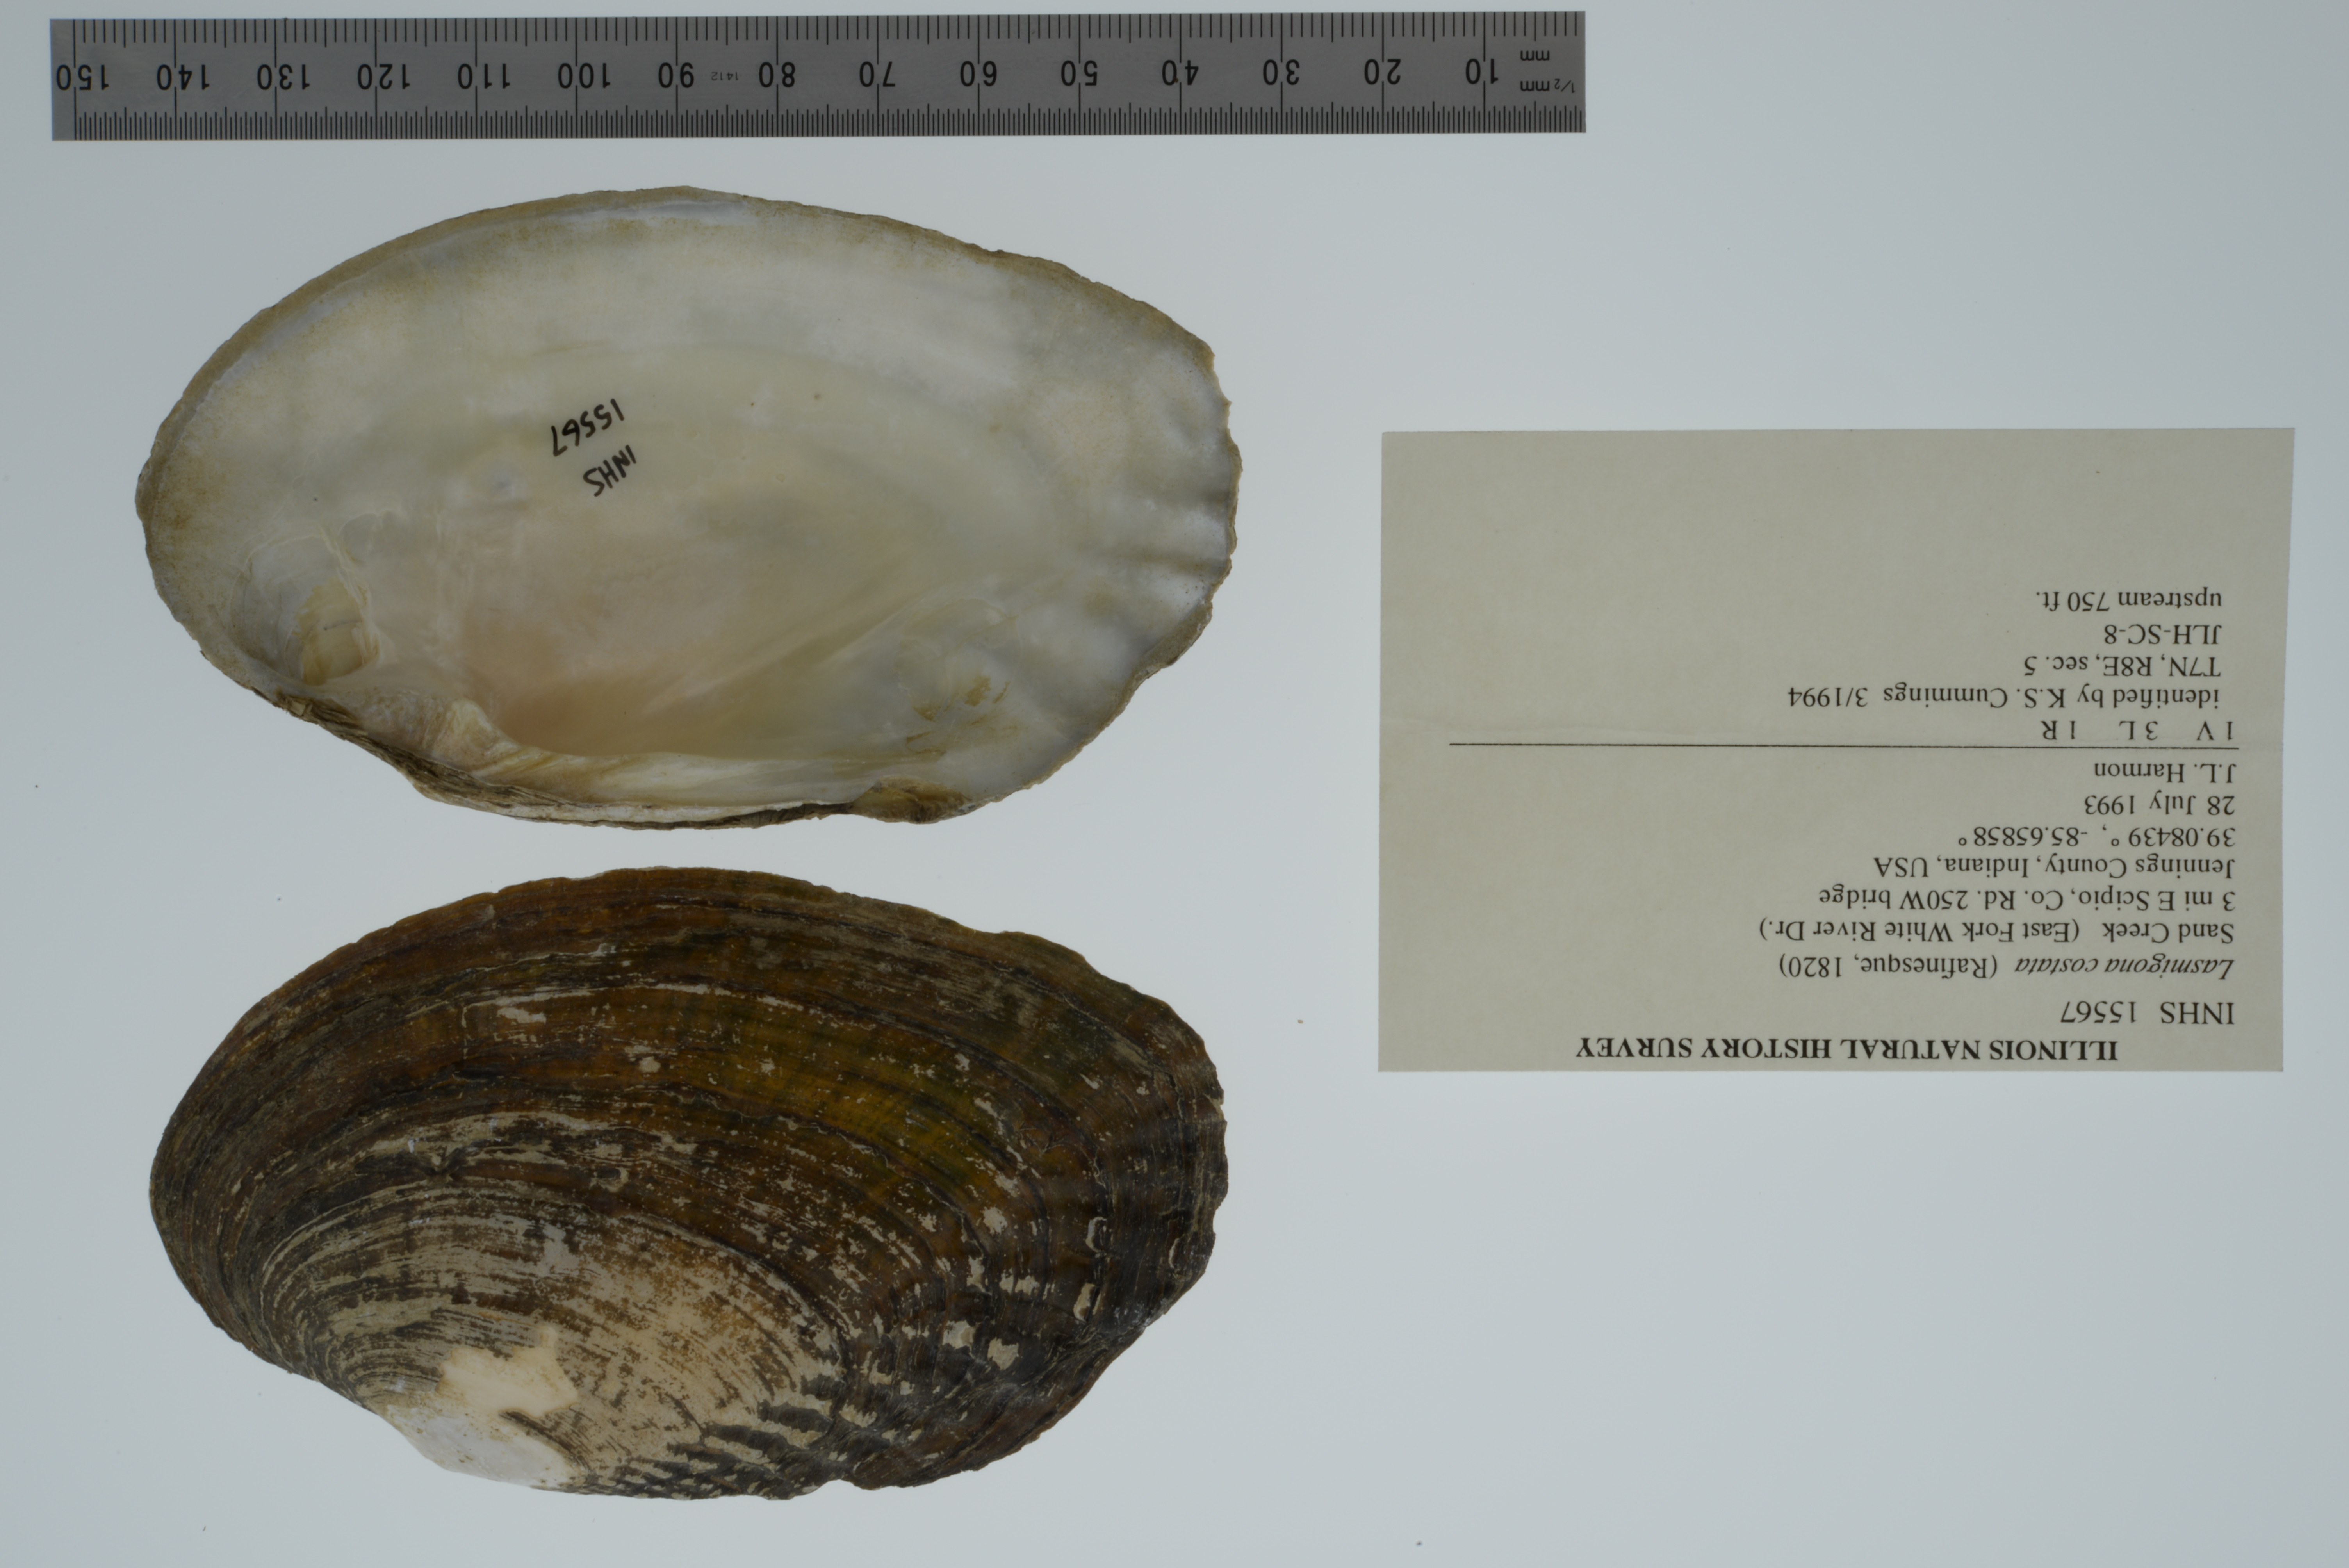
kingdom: Animalia
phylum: Mollusca
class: Bivalvia
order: Unionida
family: Unionidae
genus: Lasmigona
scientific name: Lasmigona costata
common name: Flutedshell
